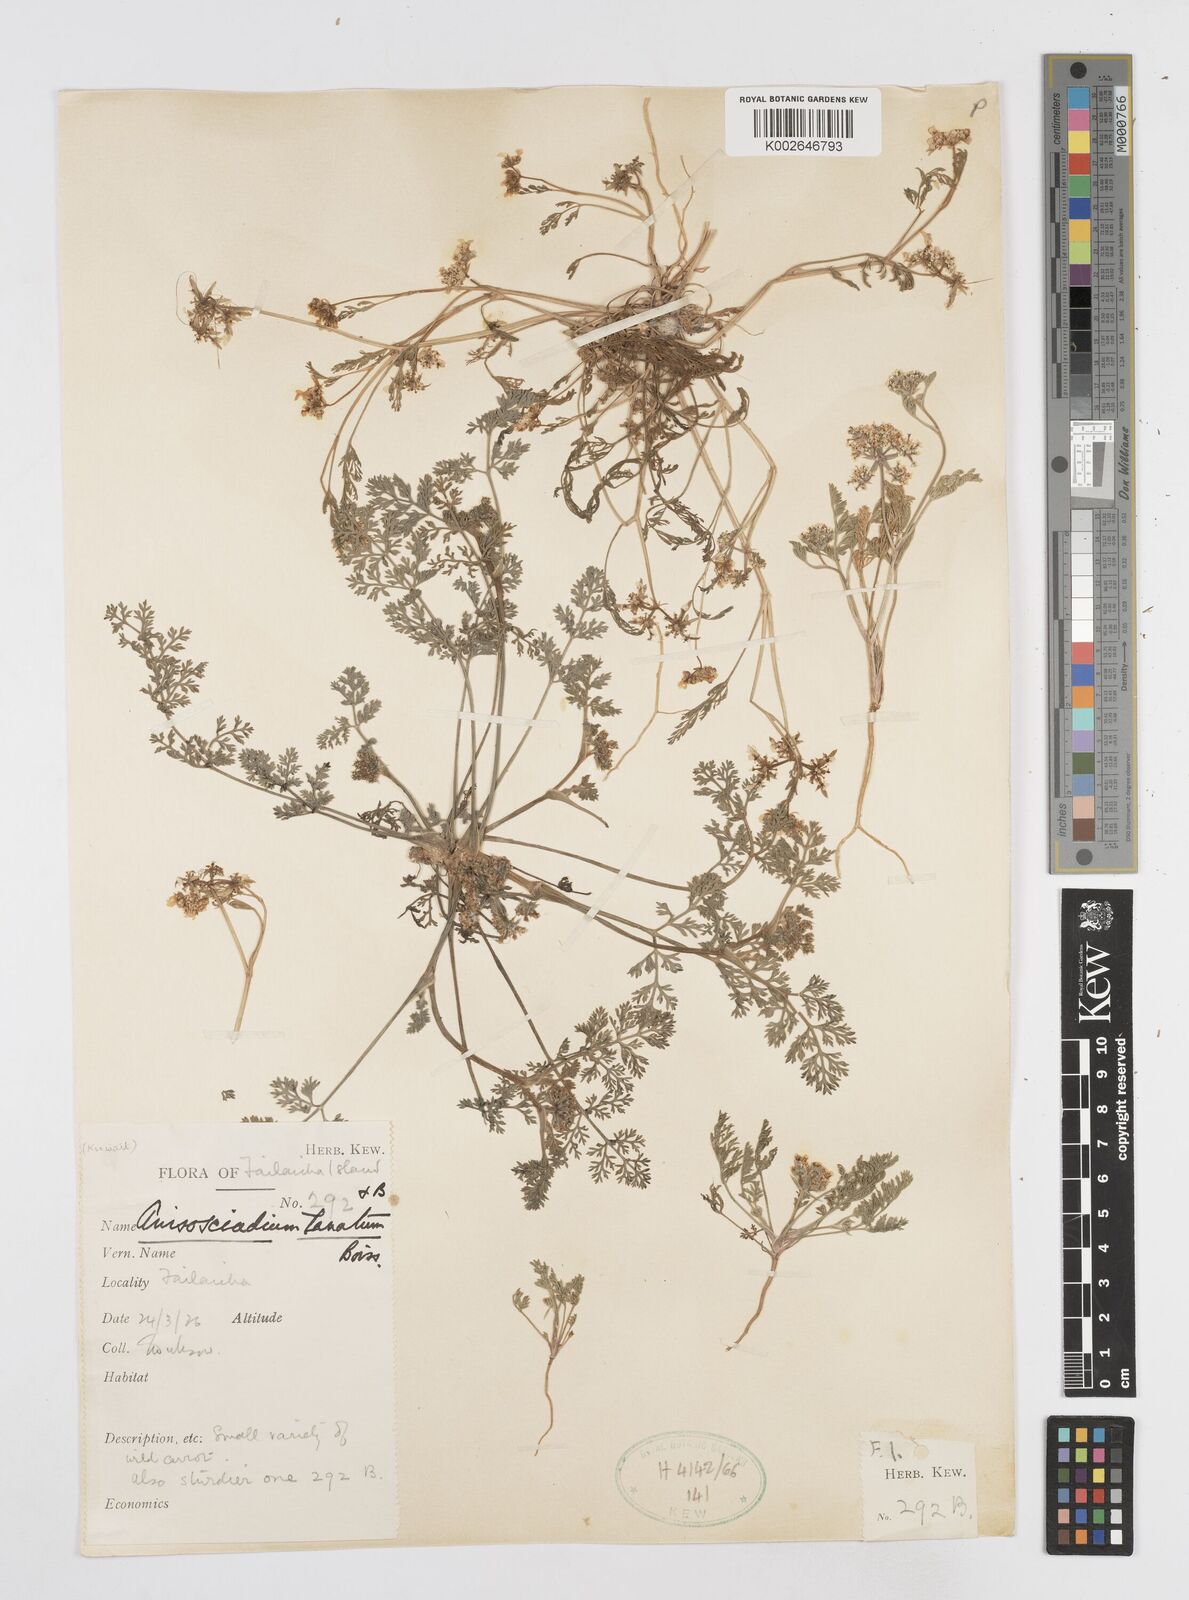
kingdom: Plantae
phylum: Tracheophyta
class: Magnoliopsida
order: Apiales
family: Apiaceae
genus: Anisosciadium
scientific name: Anisosciadium lanatum
